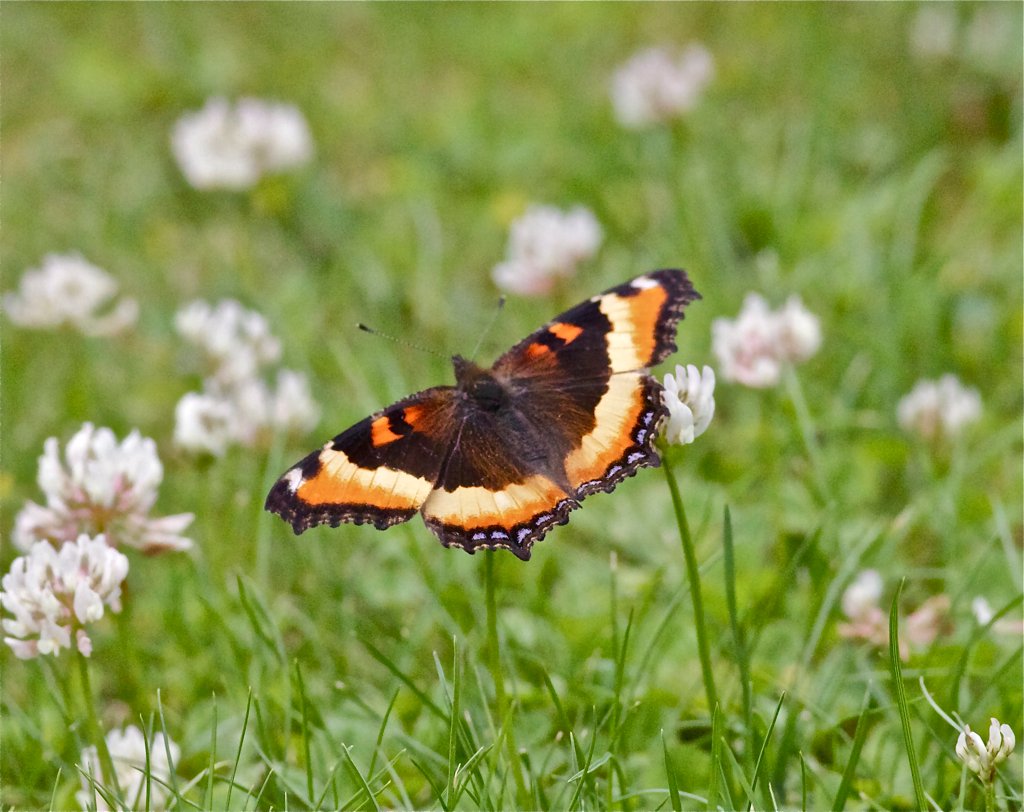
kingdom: Animalia
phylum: Arthropoda
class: Insecta
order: Lepidoptera
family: Nymphalidae
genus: Aglais
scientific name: Aglais milberti
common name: Milbert's Tortoiseshell
